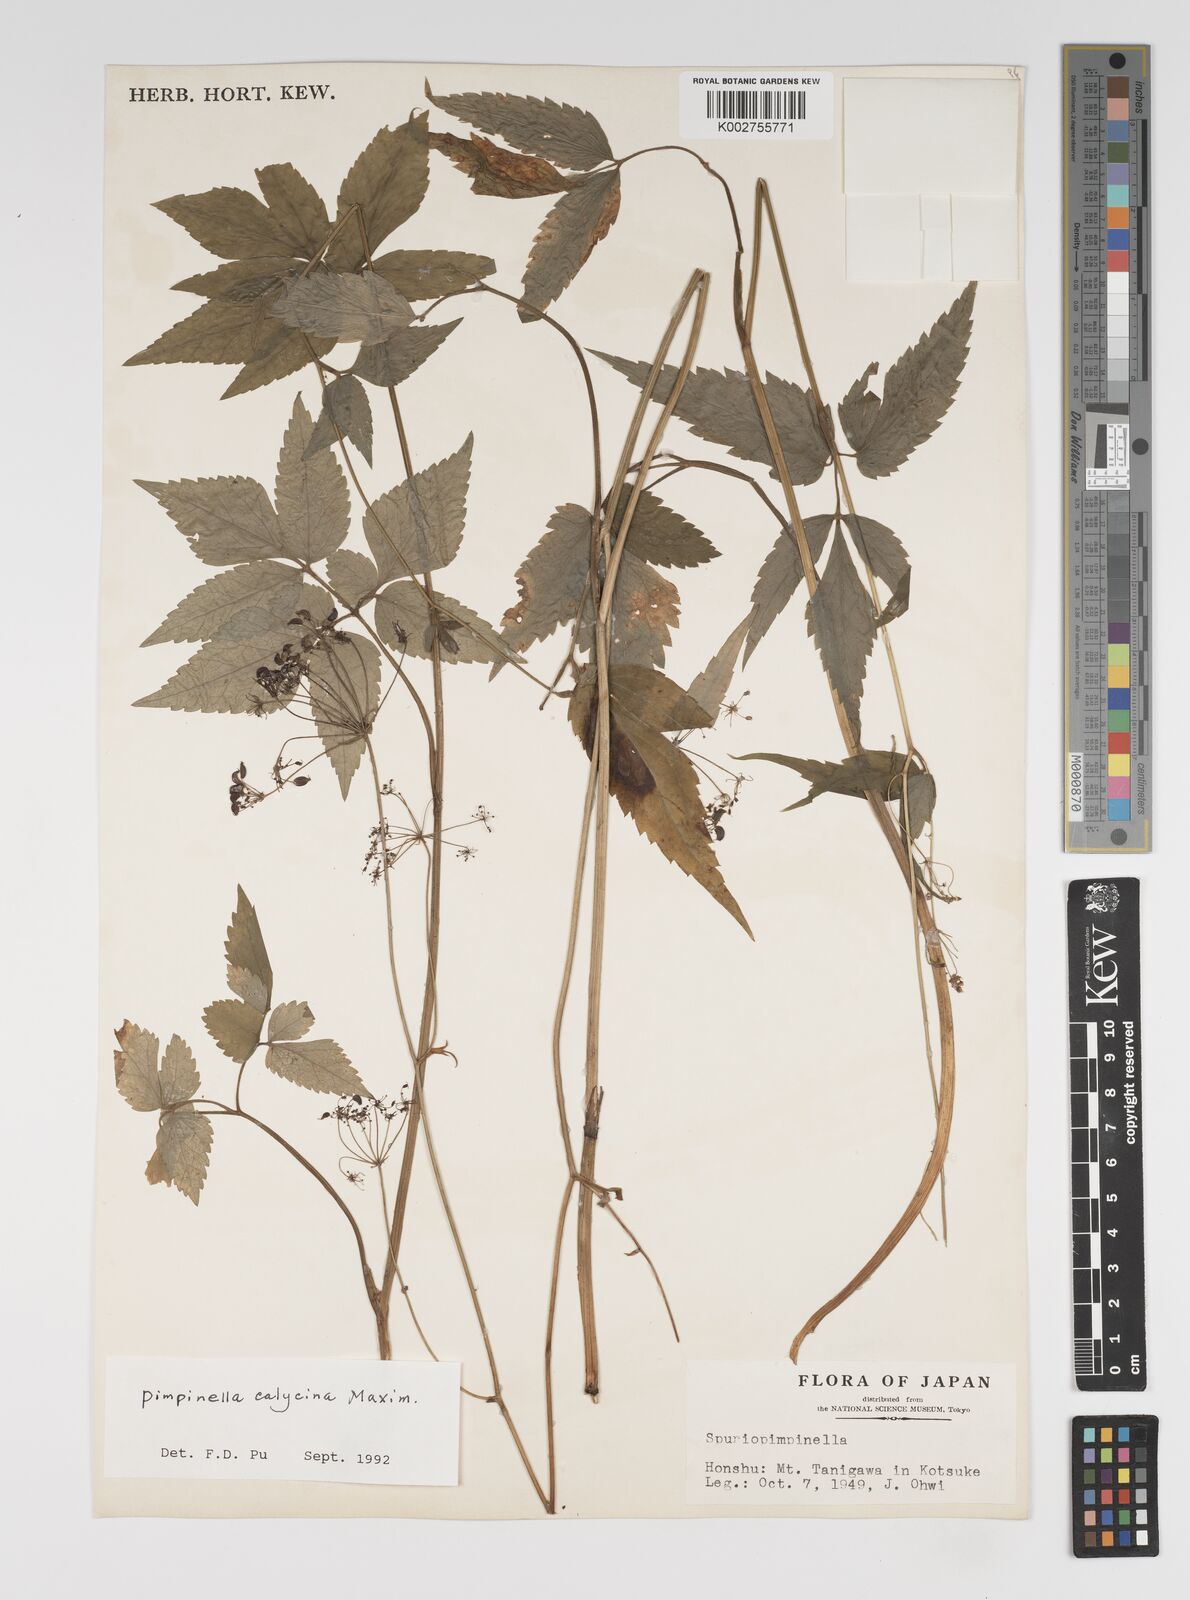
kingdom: Plantae
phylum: Tracheophyta
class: Magnoliopsida
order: Apiales
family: Apiaceae
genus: Spuriopimpinella
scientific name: Spuriopimpinella calycina
